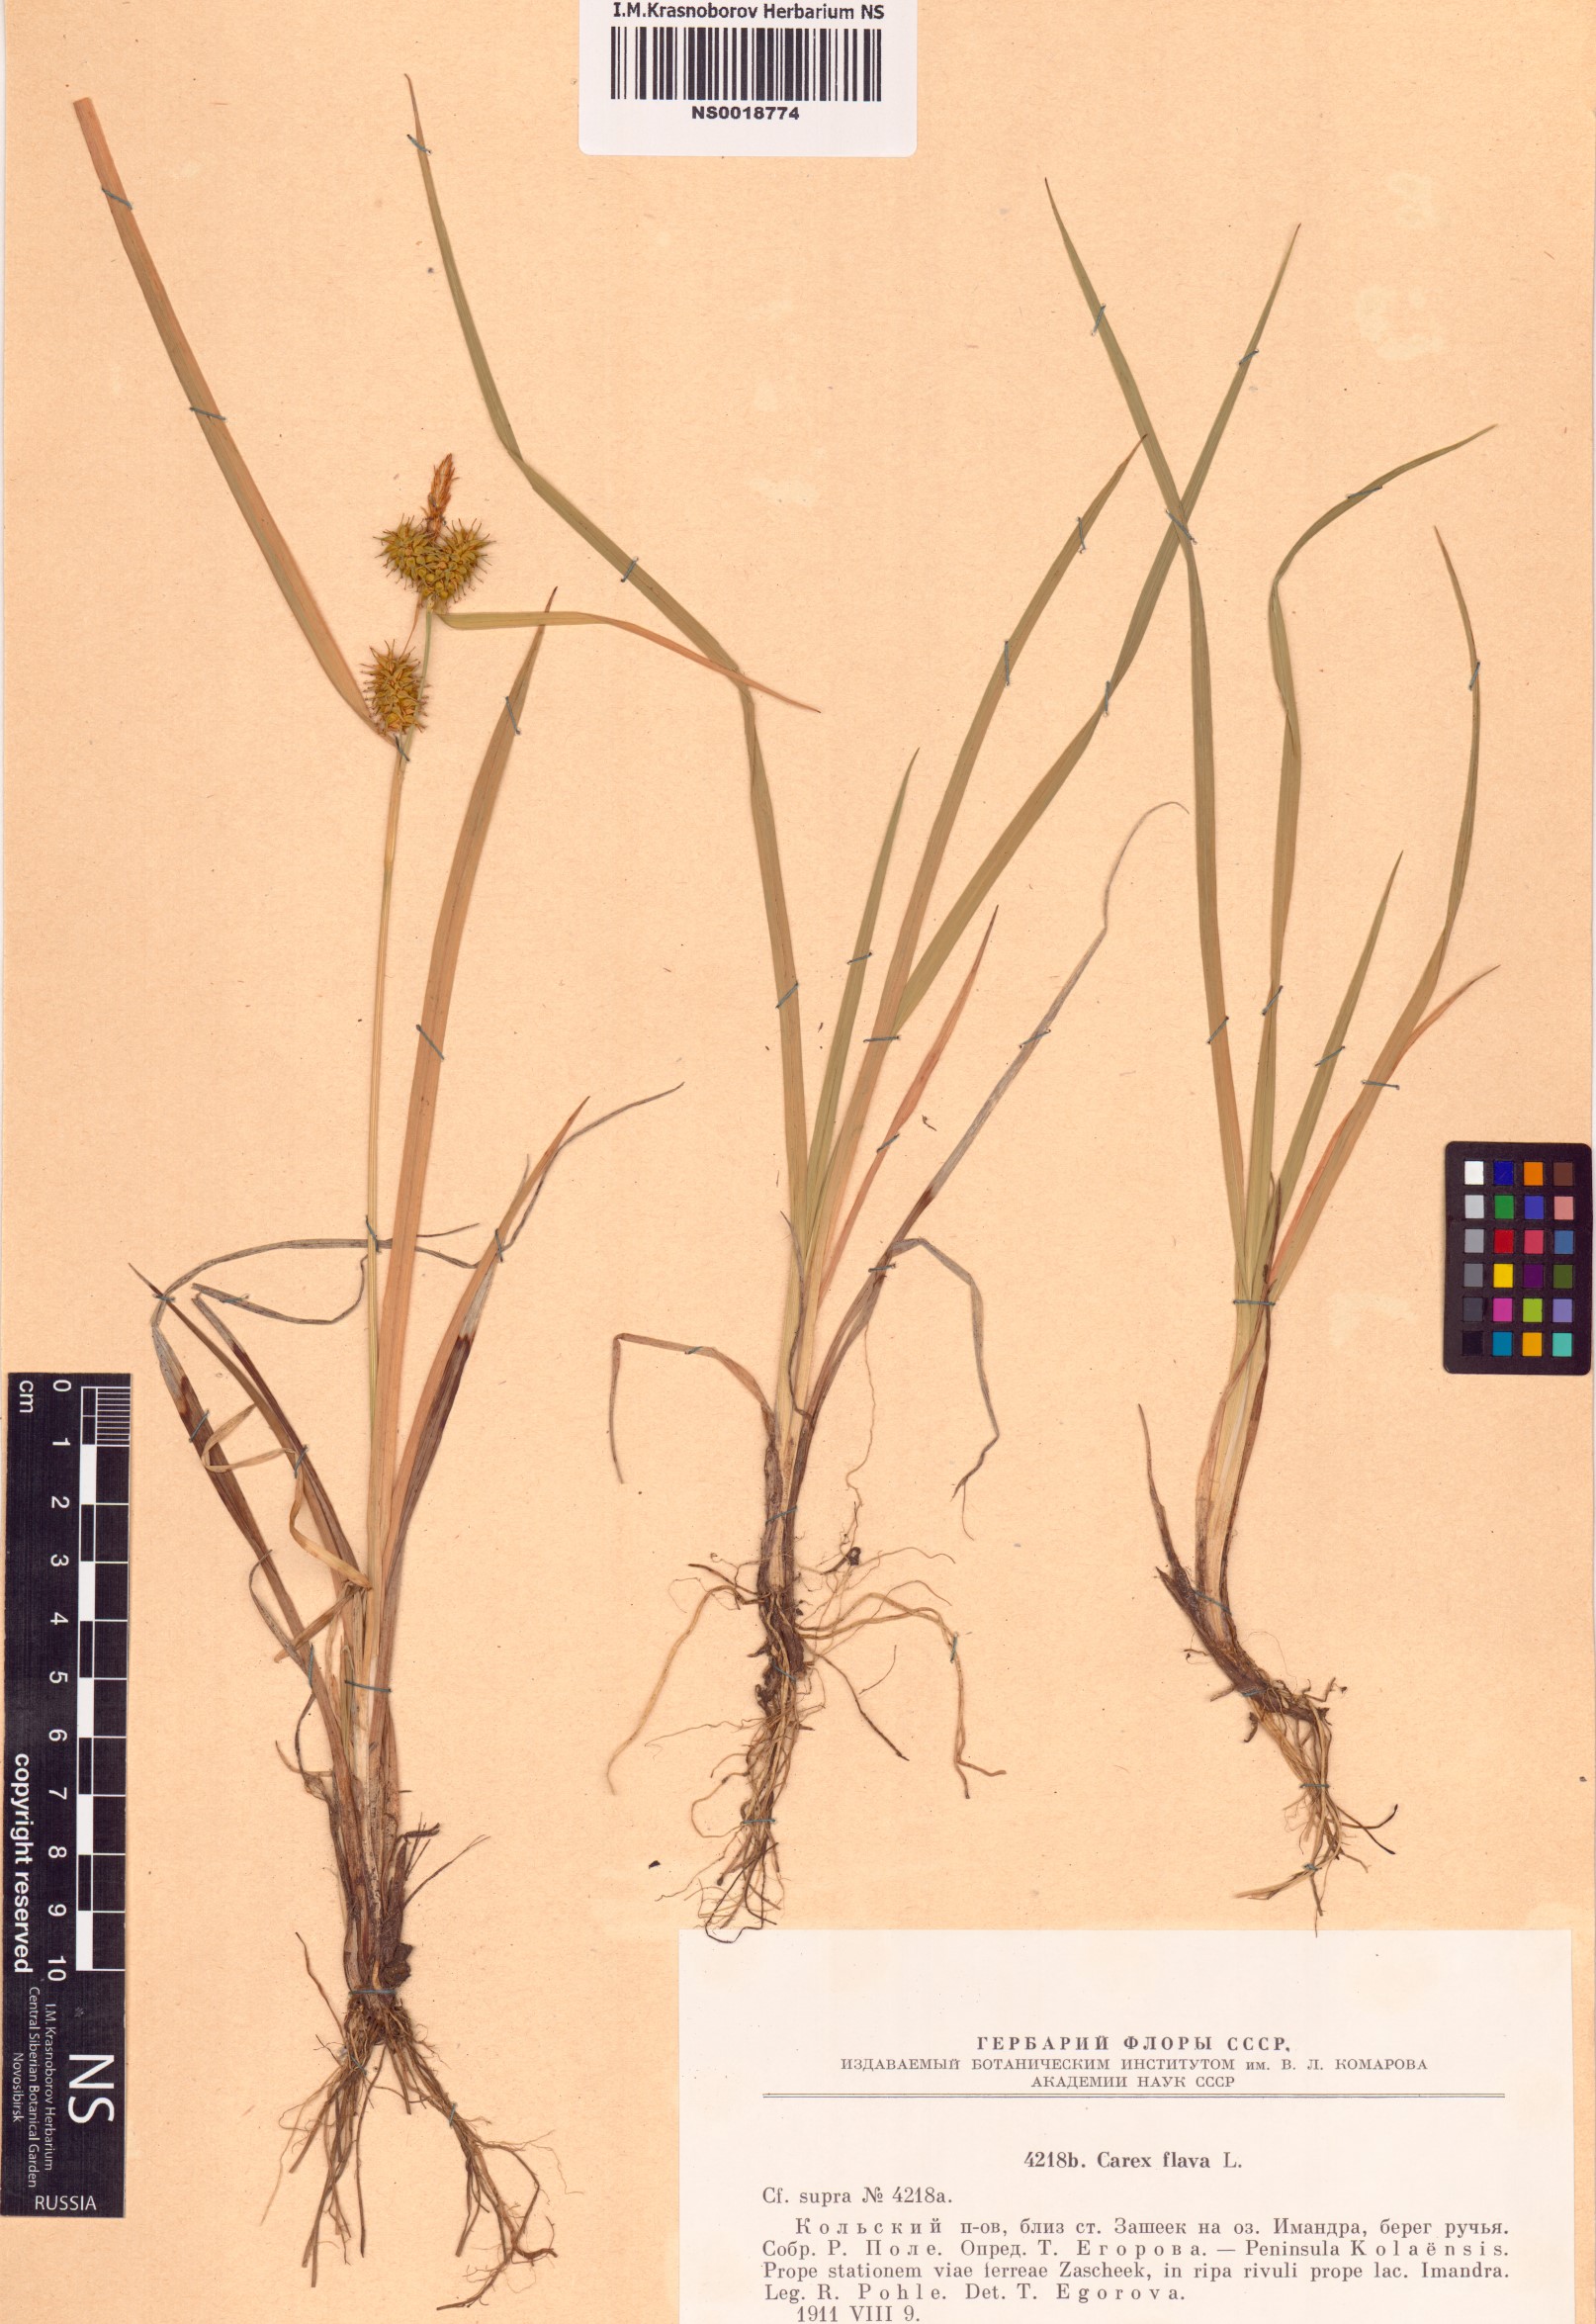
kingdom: Plantae
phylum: Tracheophyta
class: Liliopsida
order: Poales
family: Cyperaceae
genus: Carex
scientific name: Carex flava
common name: Large yellow-sedge
